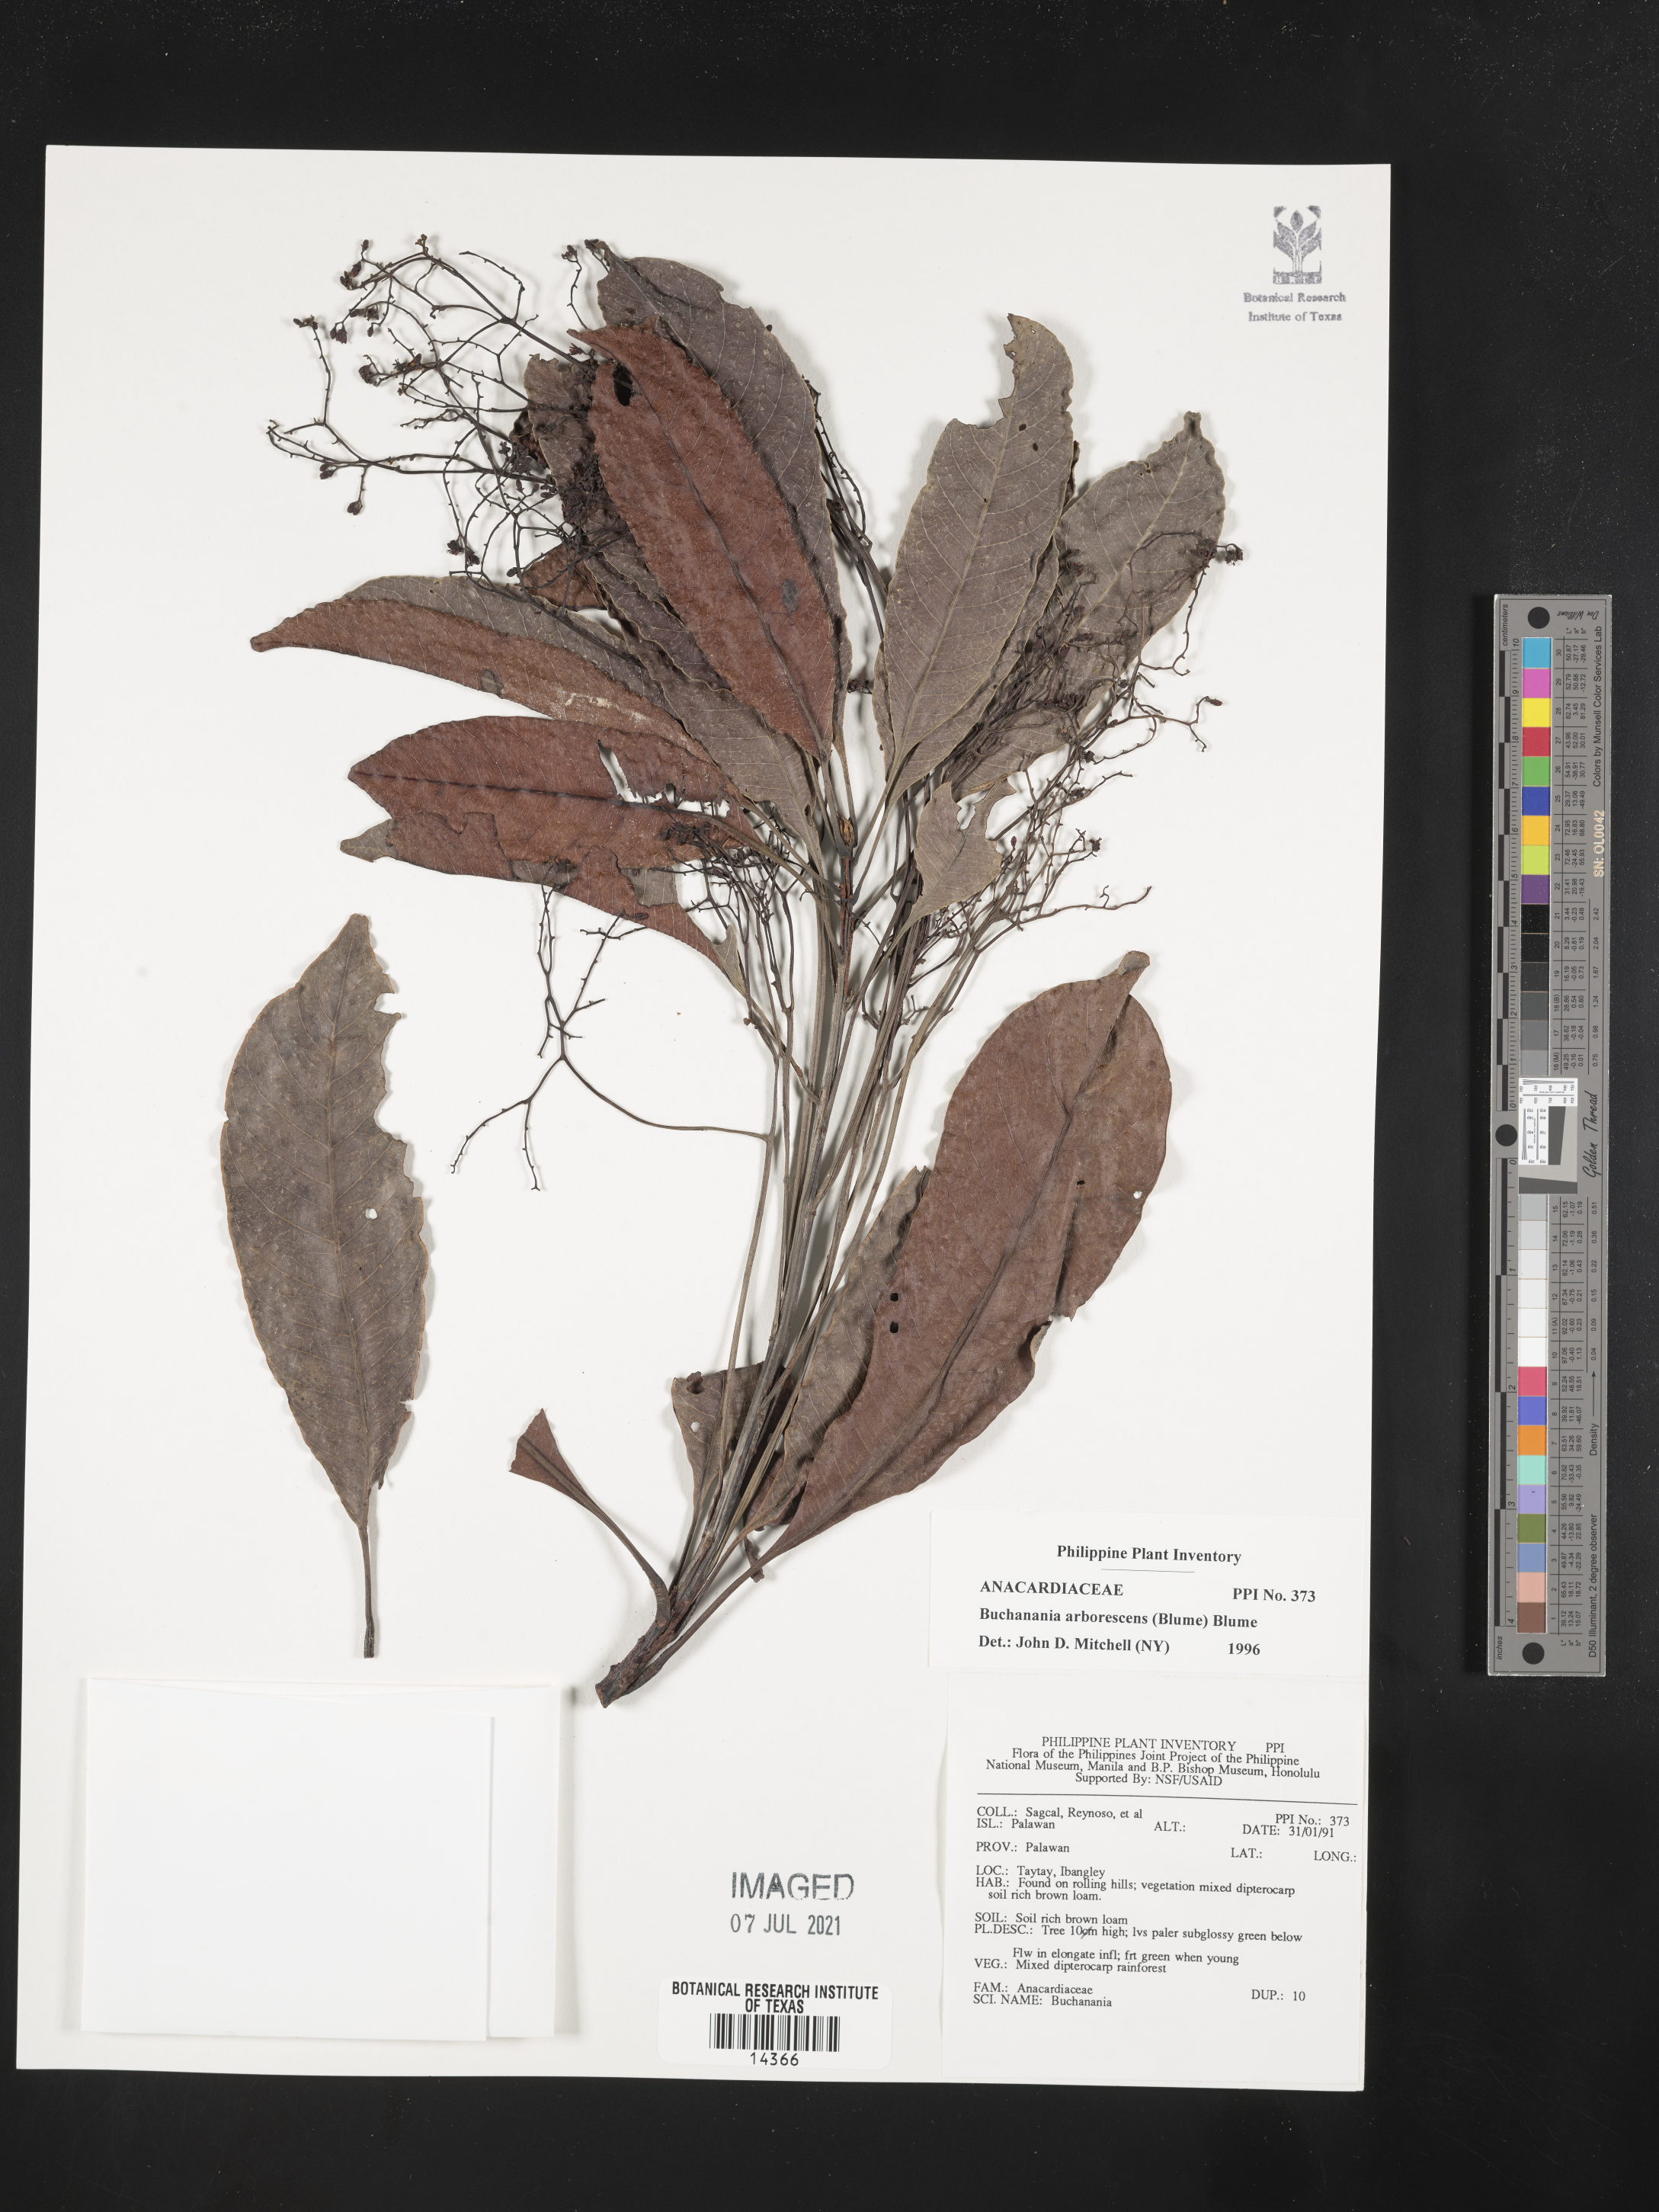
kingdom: Plantae
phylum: Tracheophyta
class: Magnoliopsida
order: Sapindales
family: Anacardiaceae
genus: Buchanania
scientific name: Buchanania arborescens
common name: Sparrow’s mango
